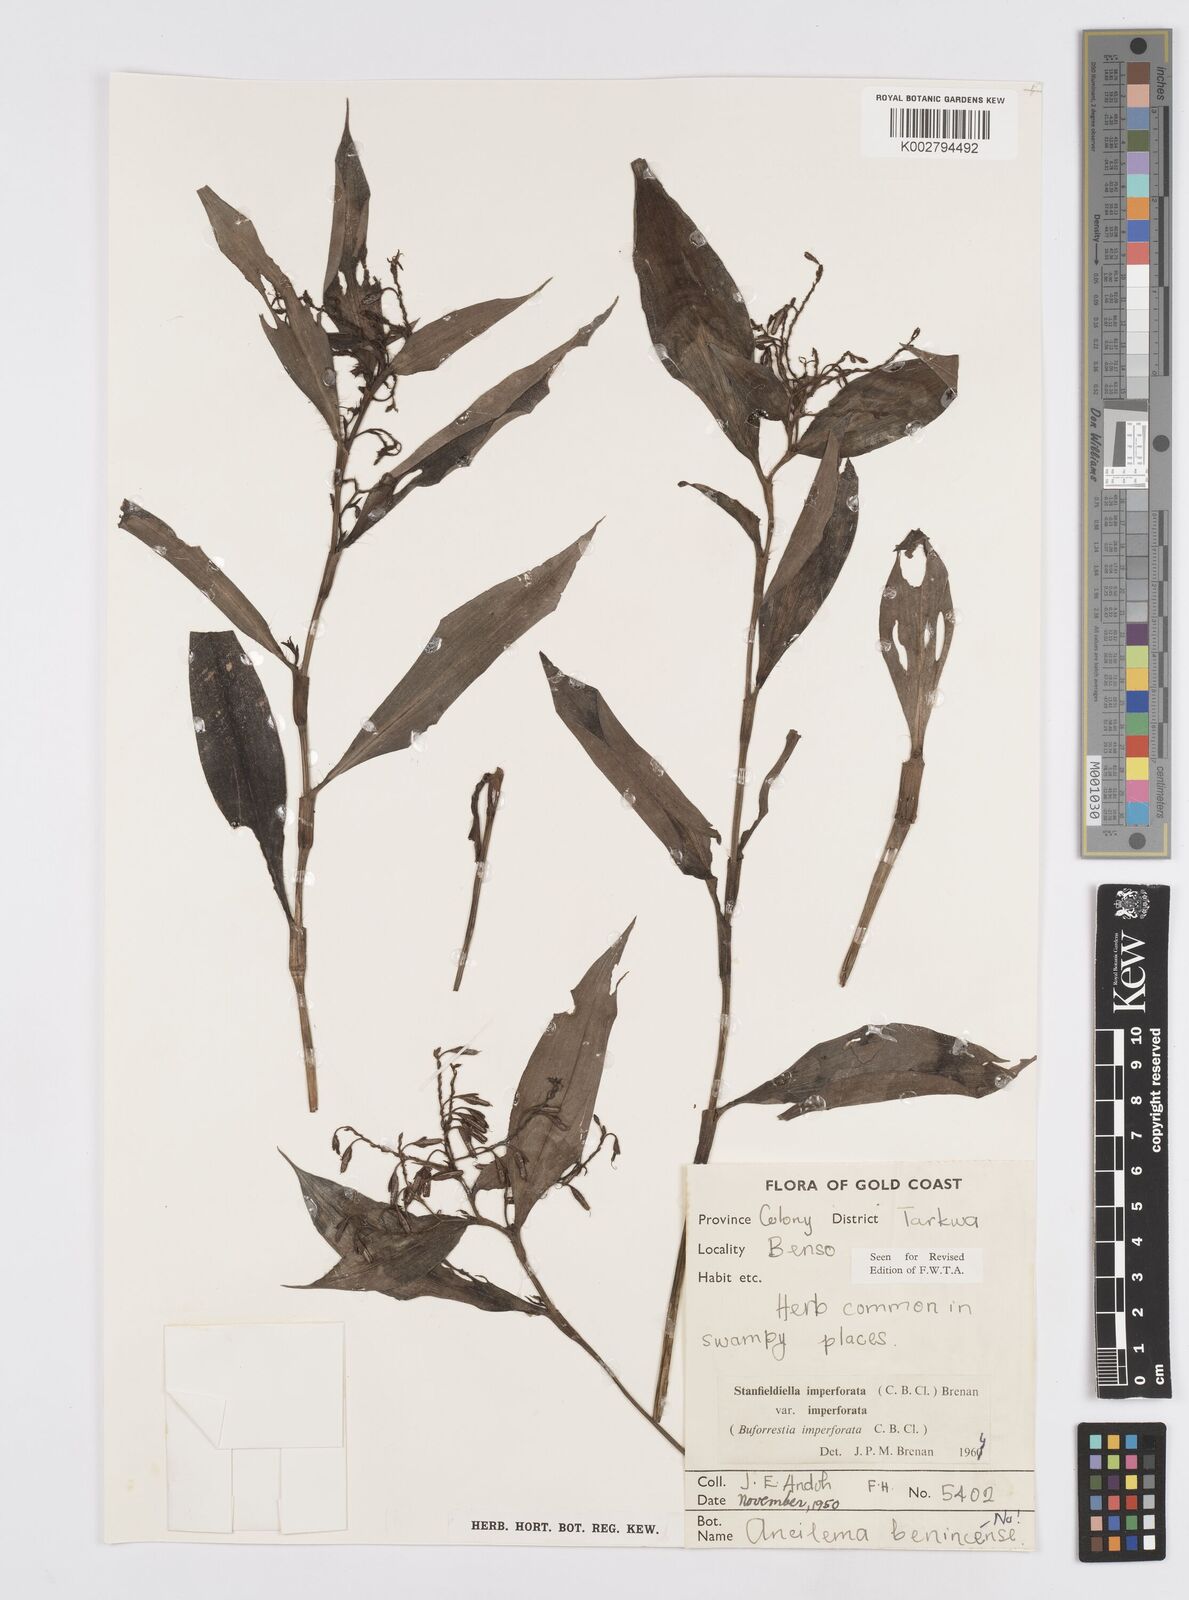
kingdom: Plantae
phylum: Tracheophyta
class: Liliopsida
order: Commelinales
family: Commelinaceae
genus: Stanfieldiella
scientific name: Stanfieldiella imperforata
